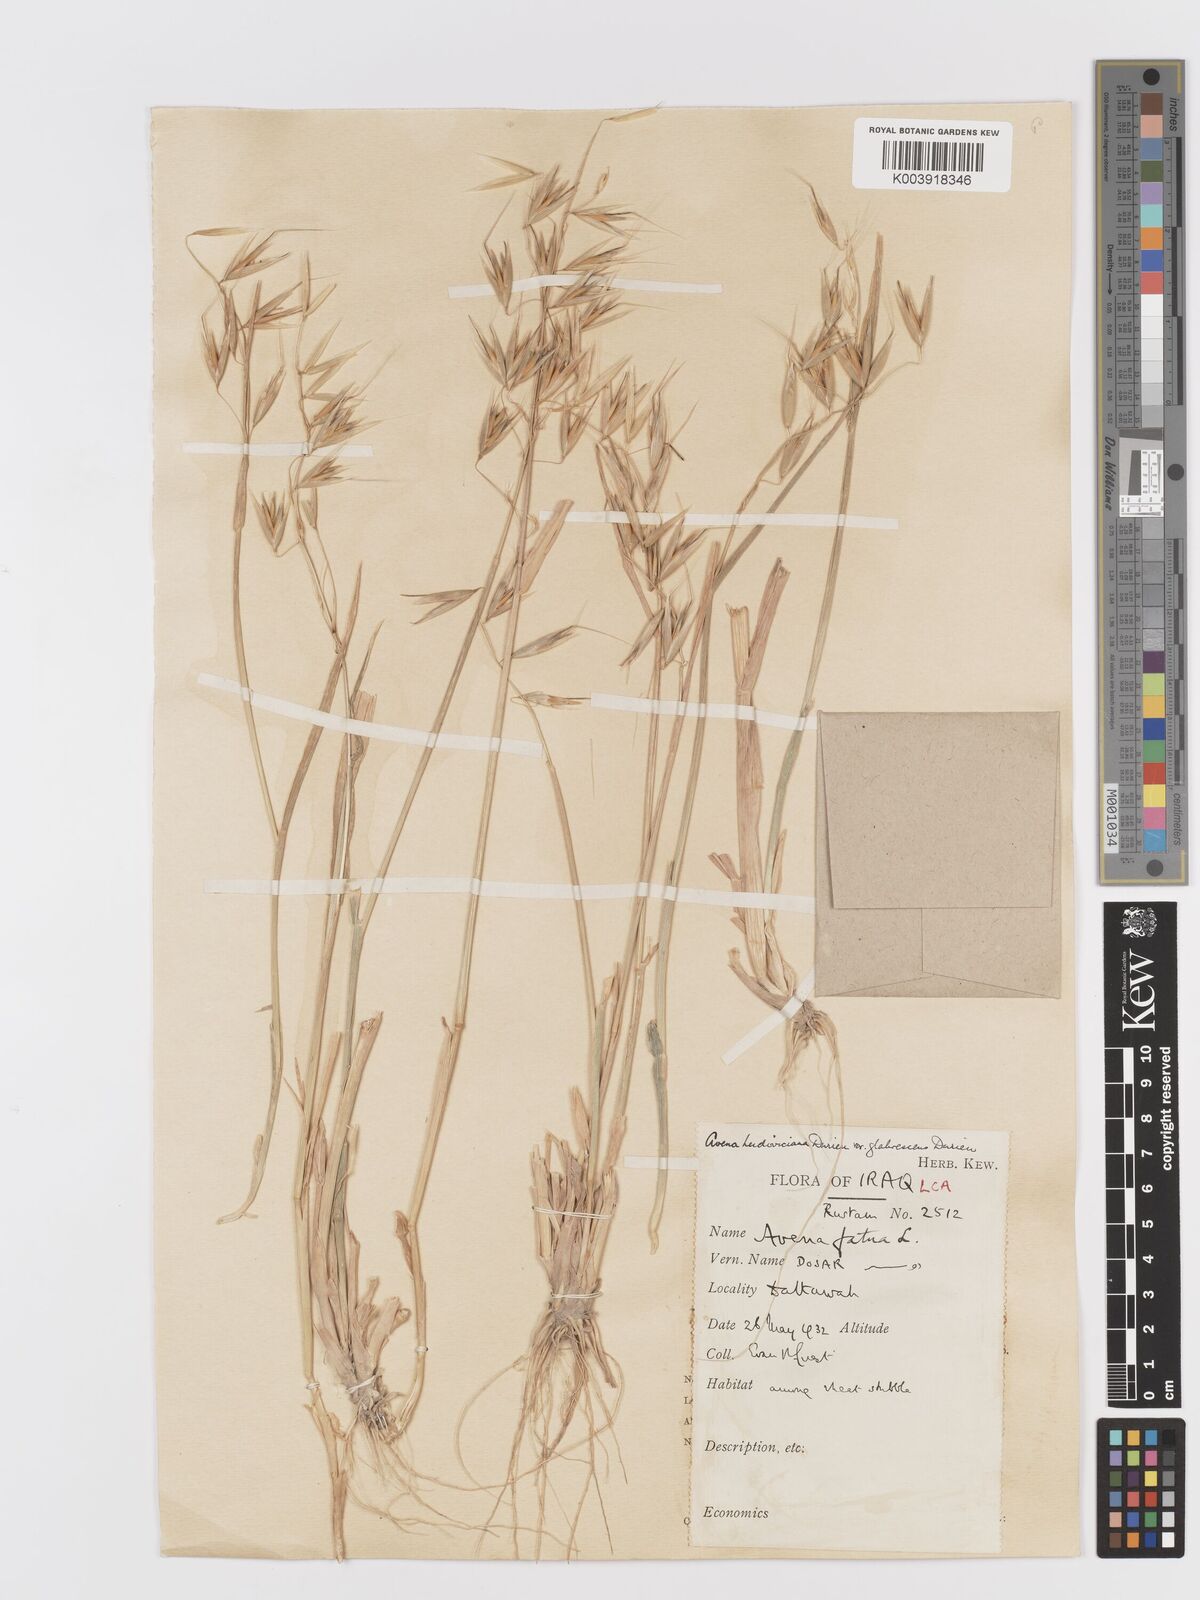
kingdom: Plantae
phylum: Tracheophyta
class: Liliopsida
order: Poales
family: Poaceae
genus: Avena
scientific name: Avena sterilis
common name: Animated oat
